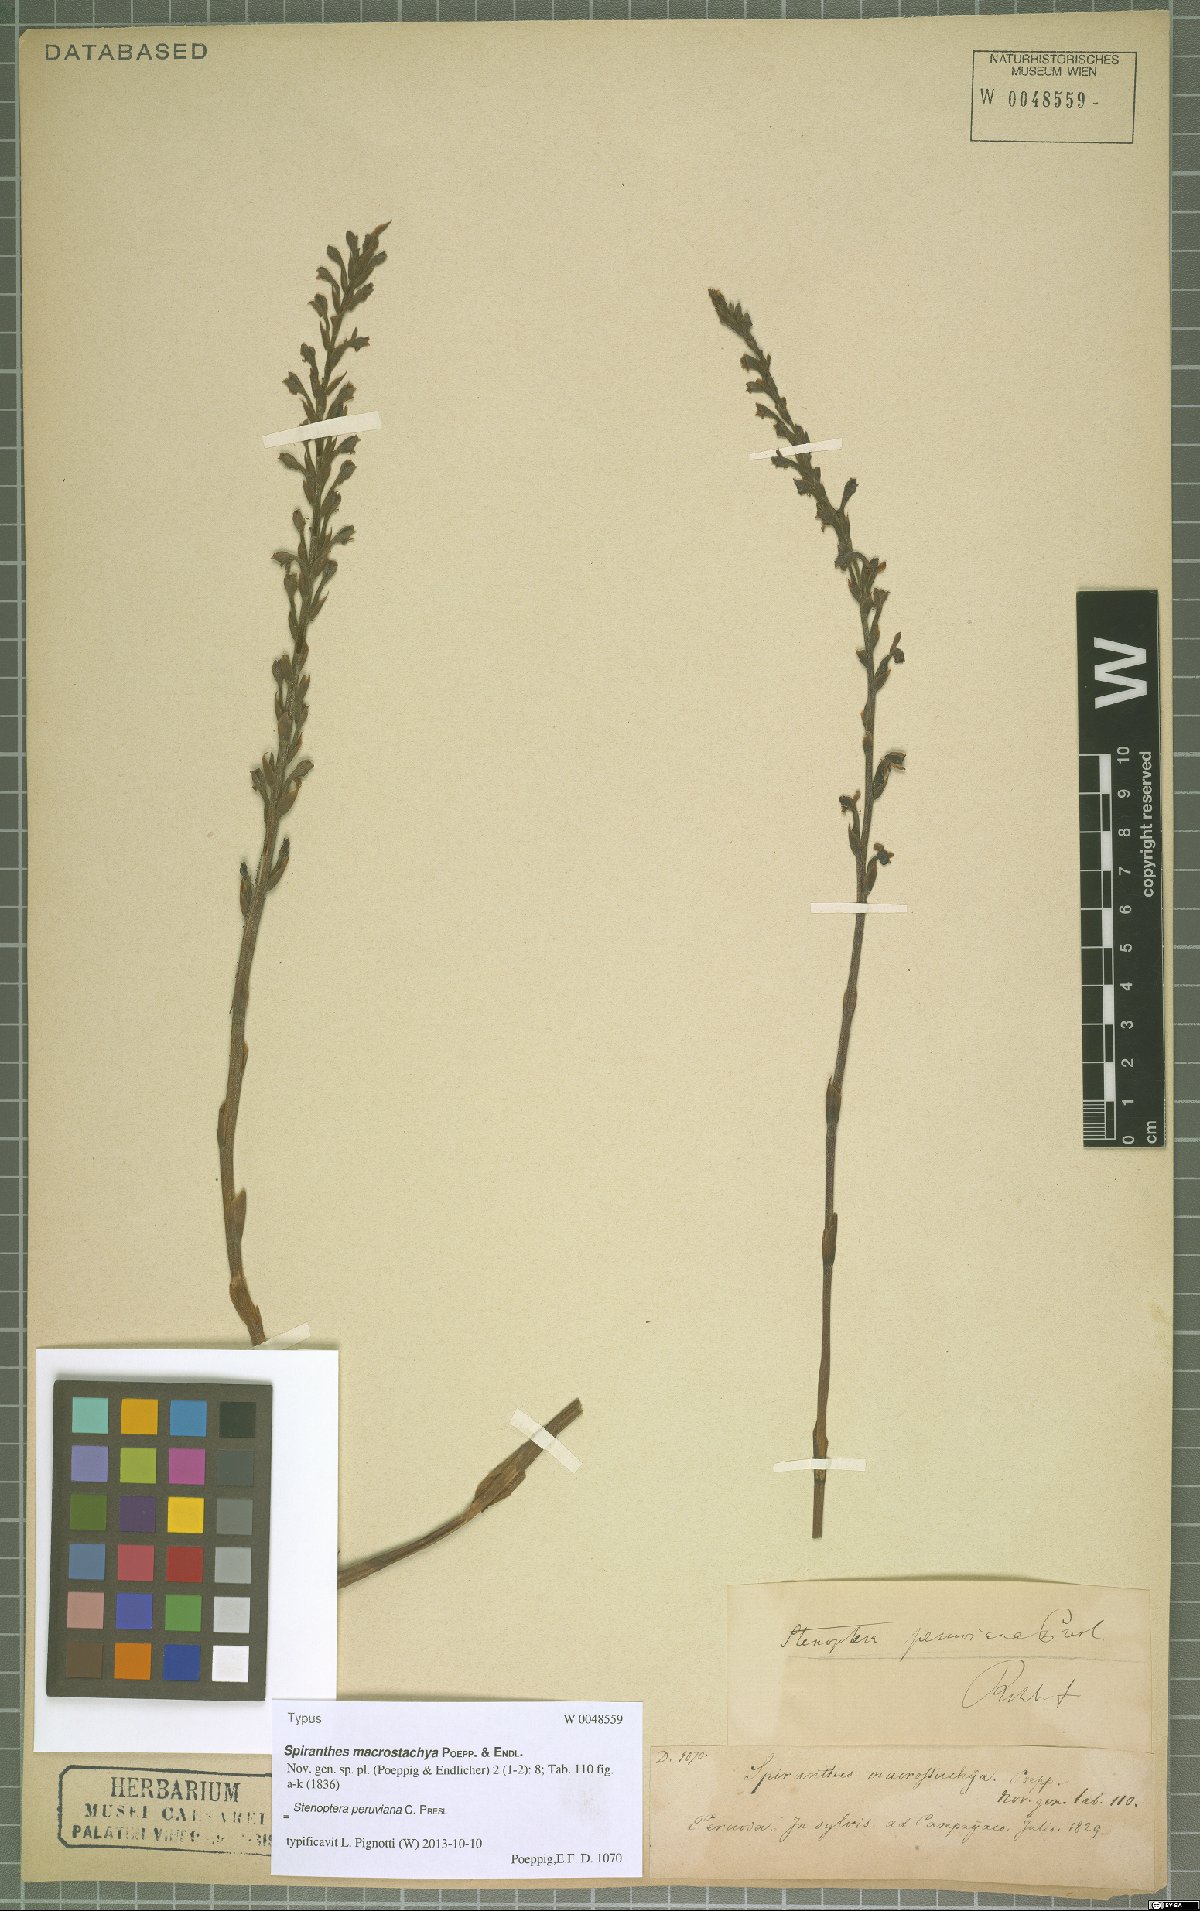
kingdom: Plantae
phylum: Tracheophyta
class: Liliopsida
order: Asparagales
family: Orchidaceae
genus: Stenoptera
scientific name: Stenoptera peruviana
